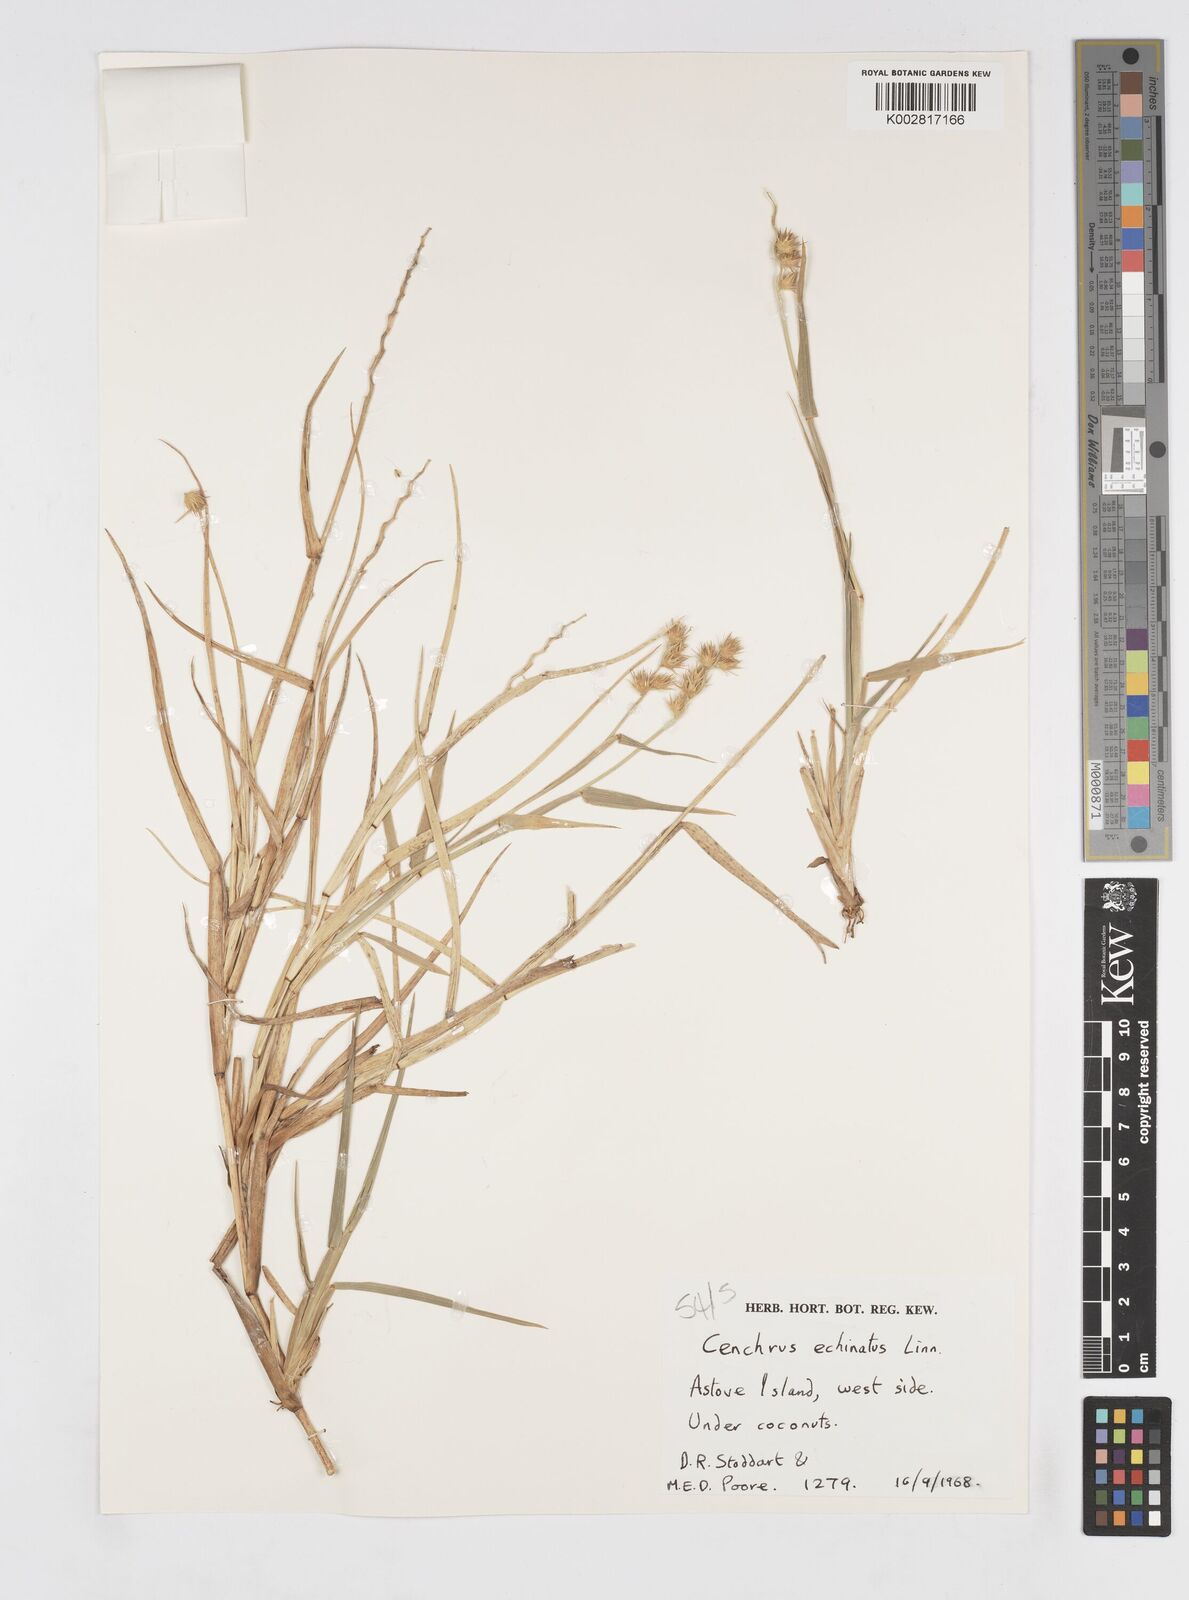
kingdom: Plantae
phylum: Tracheophyta
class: Liliopsida
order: Poales
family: Poaceae
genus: Cenchrus
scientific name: Cenchrus echinatus
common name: Southern sandbur
